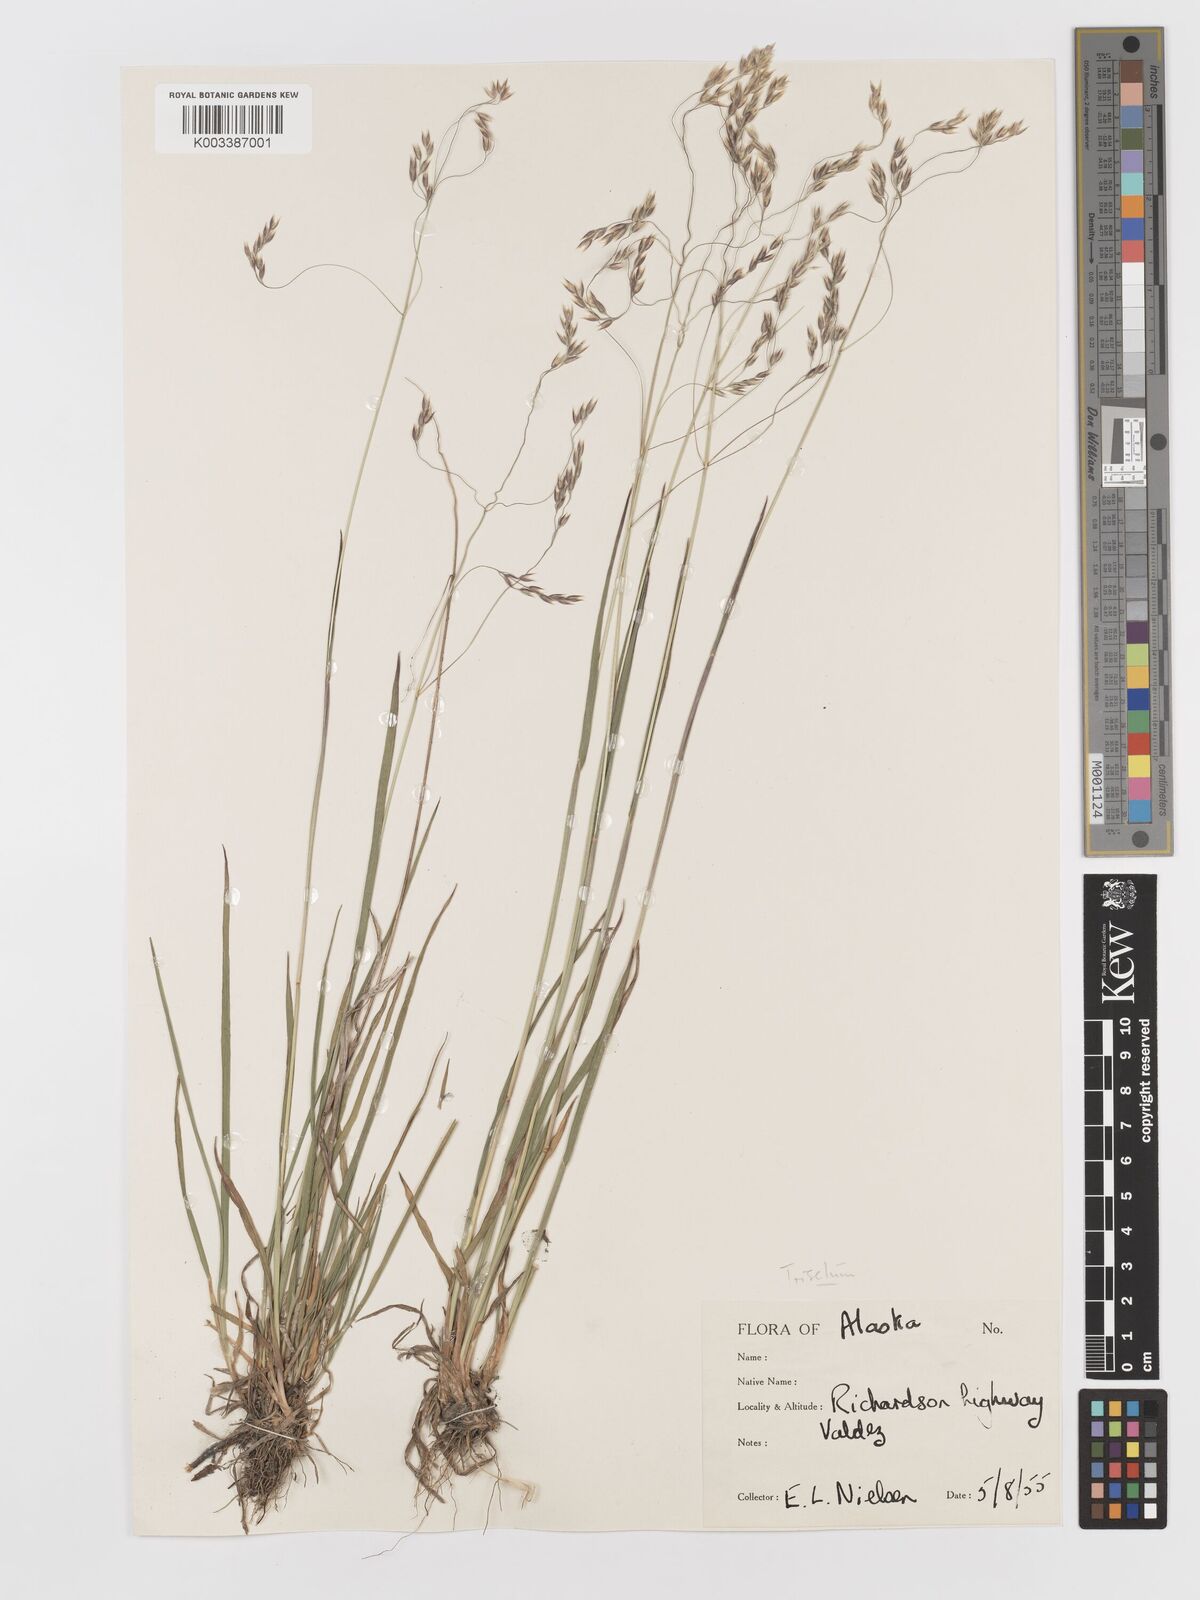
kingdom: Plantae
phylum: Tracheophyta
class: Liliopsida
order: Poales
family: Poaceae
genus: Vahlodea
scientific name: Vahlodea atropurpurea
